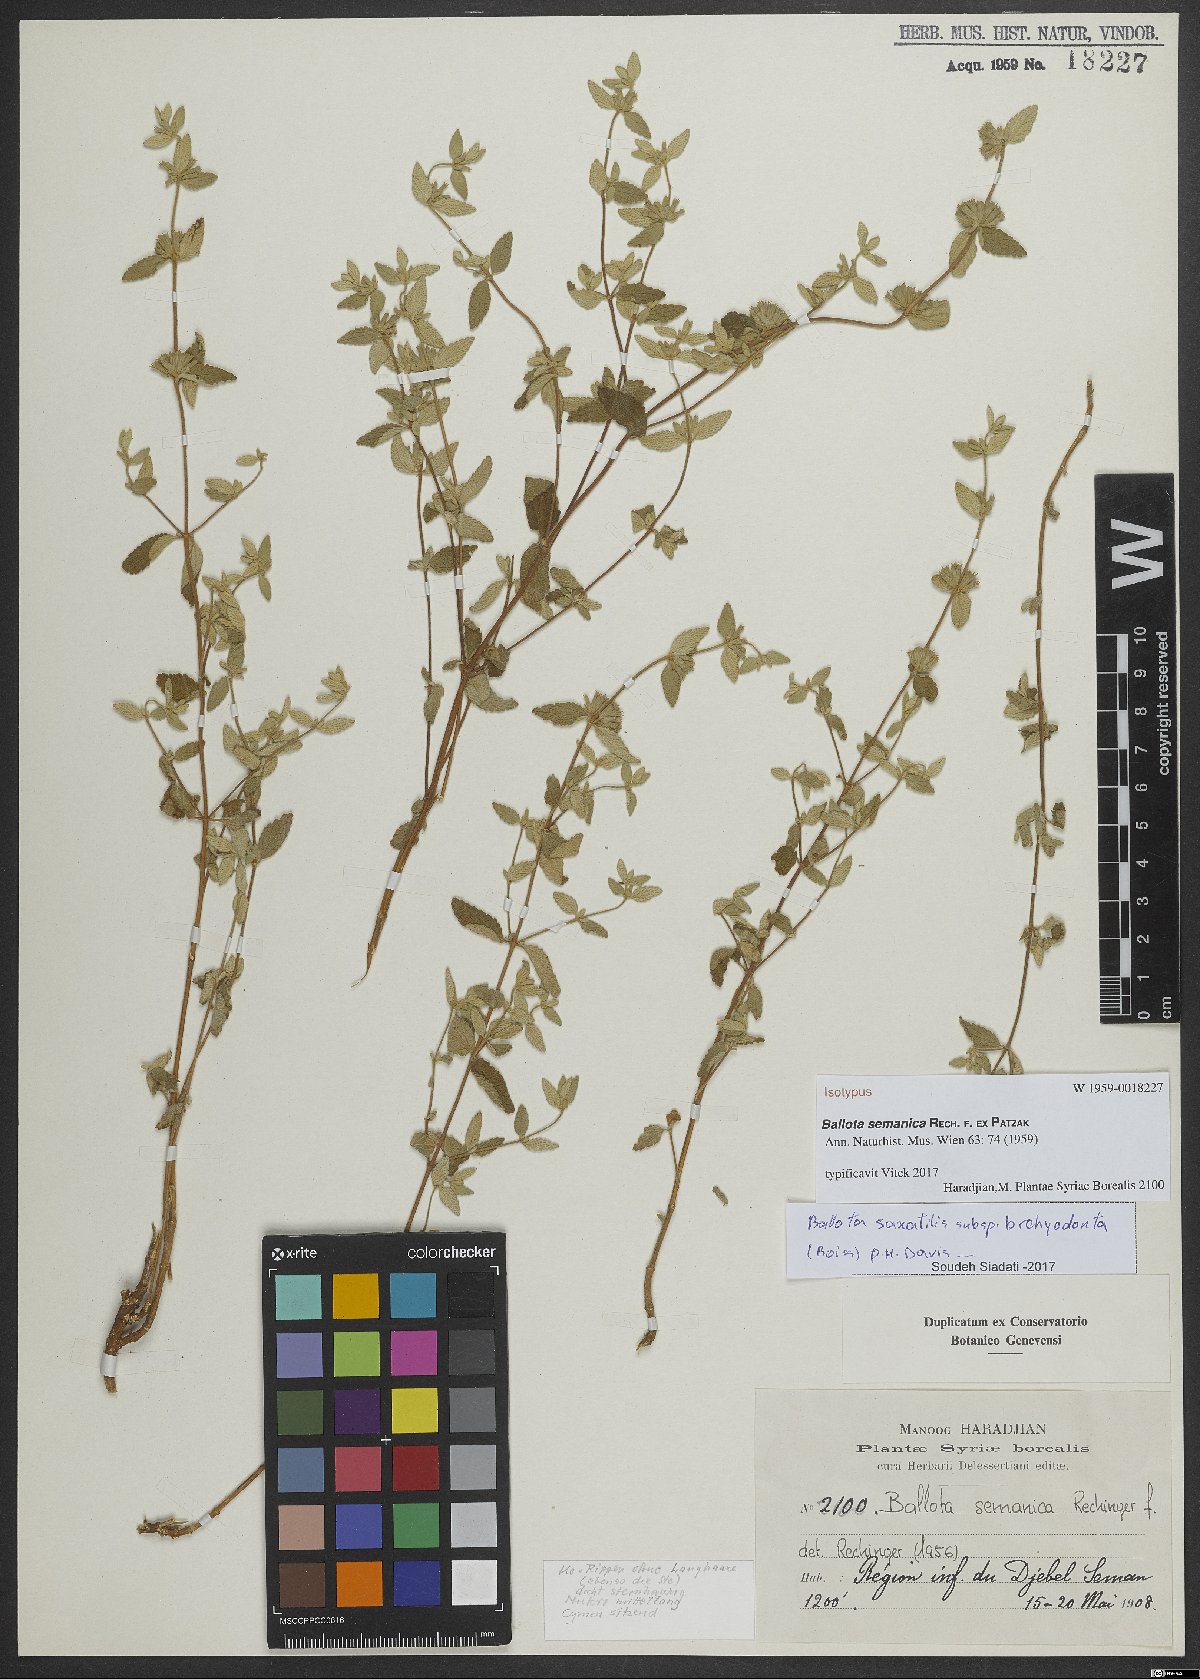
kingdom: Plantae
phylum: Tracheophyta
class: Magnoliopsida
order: Lamiales
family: Lamiaceae
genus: Ballota
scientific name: Ballota saxatilis
